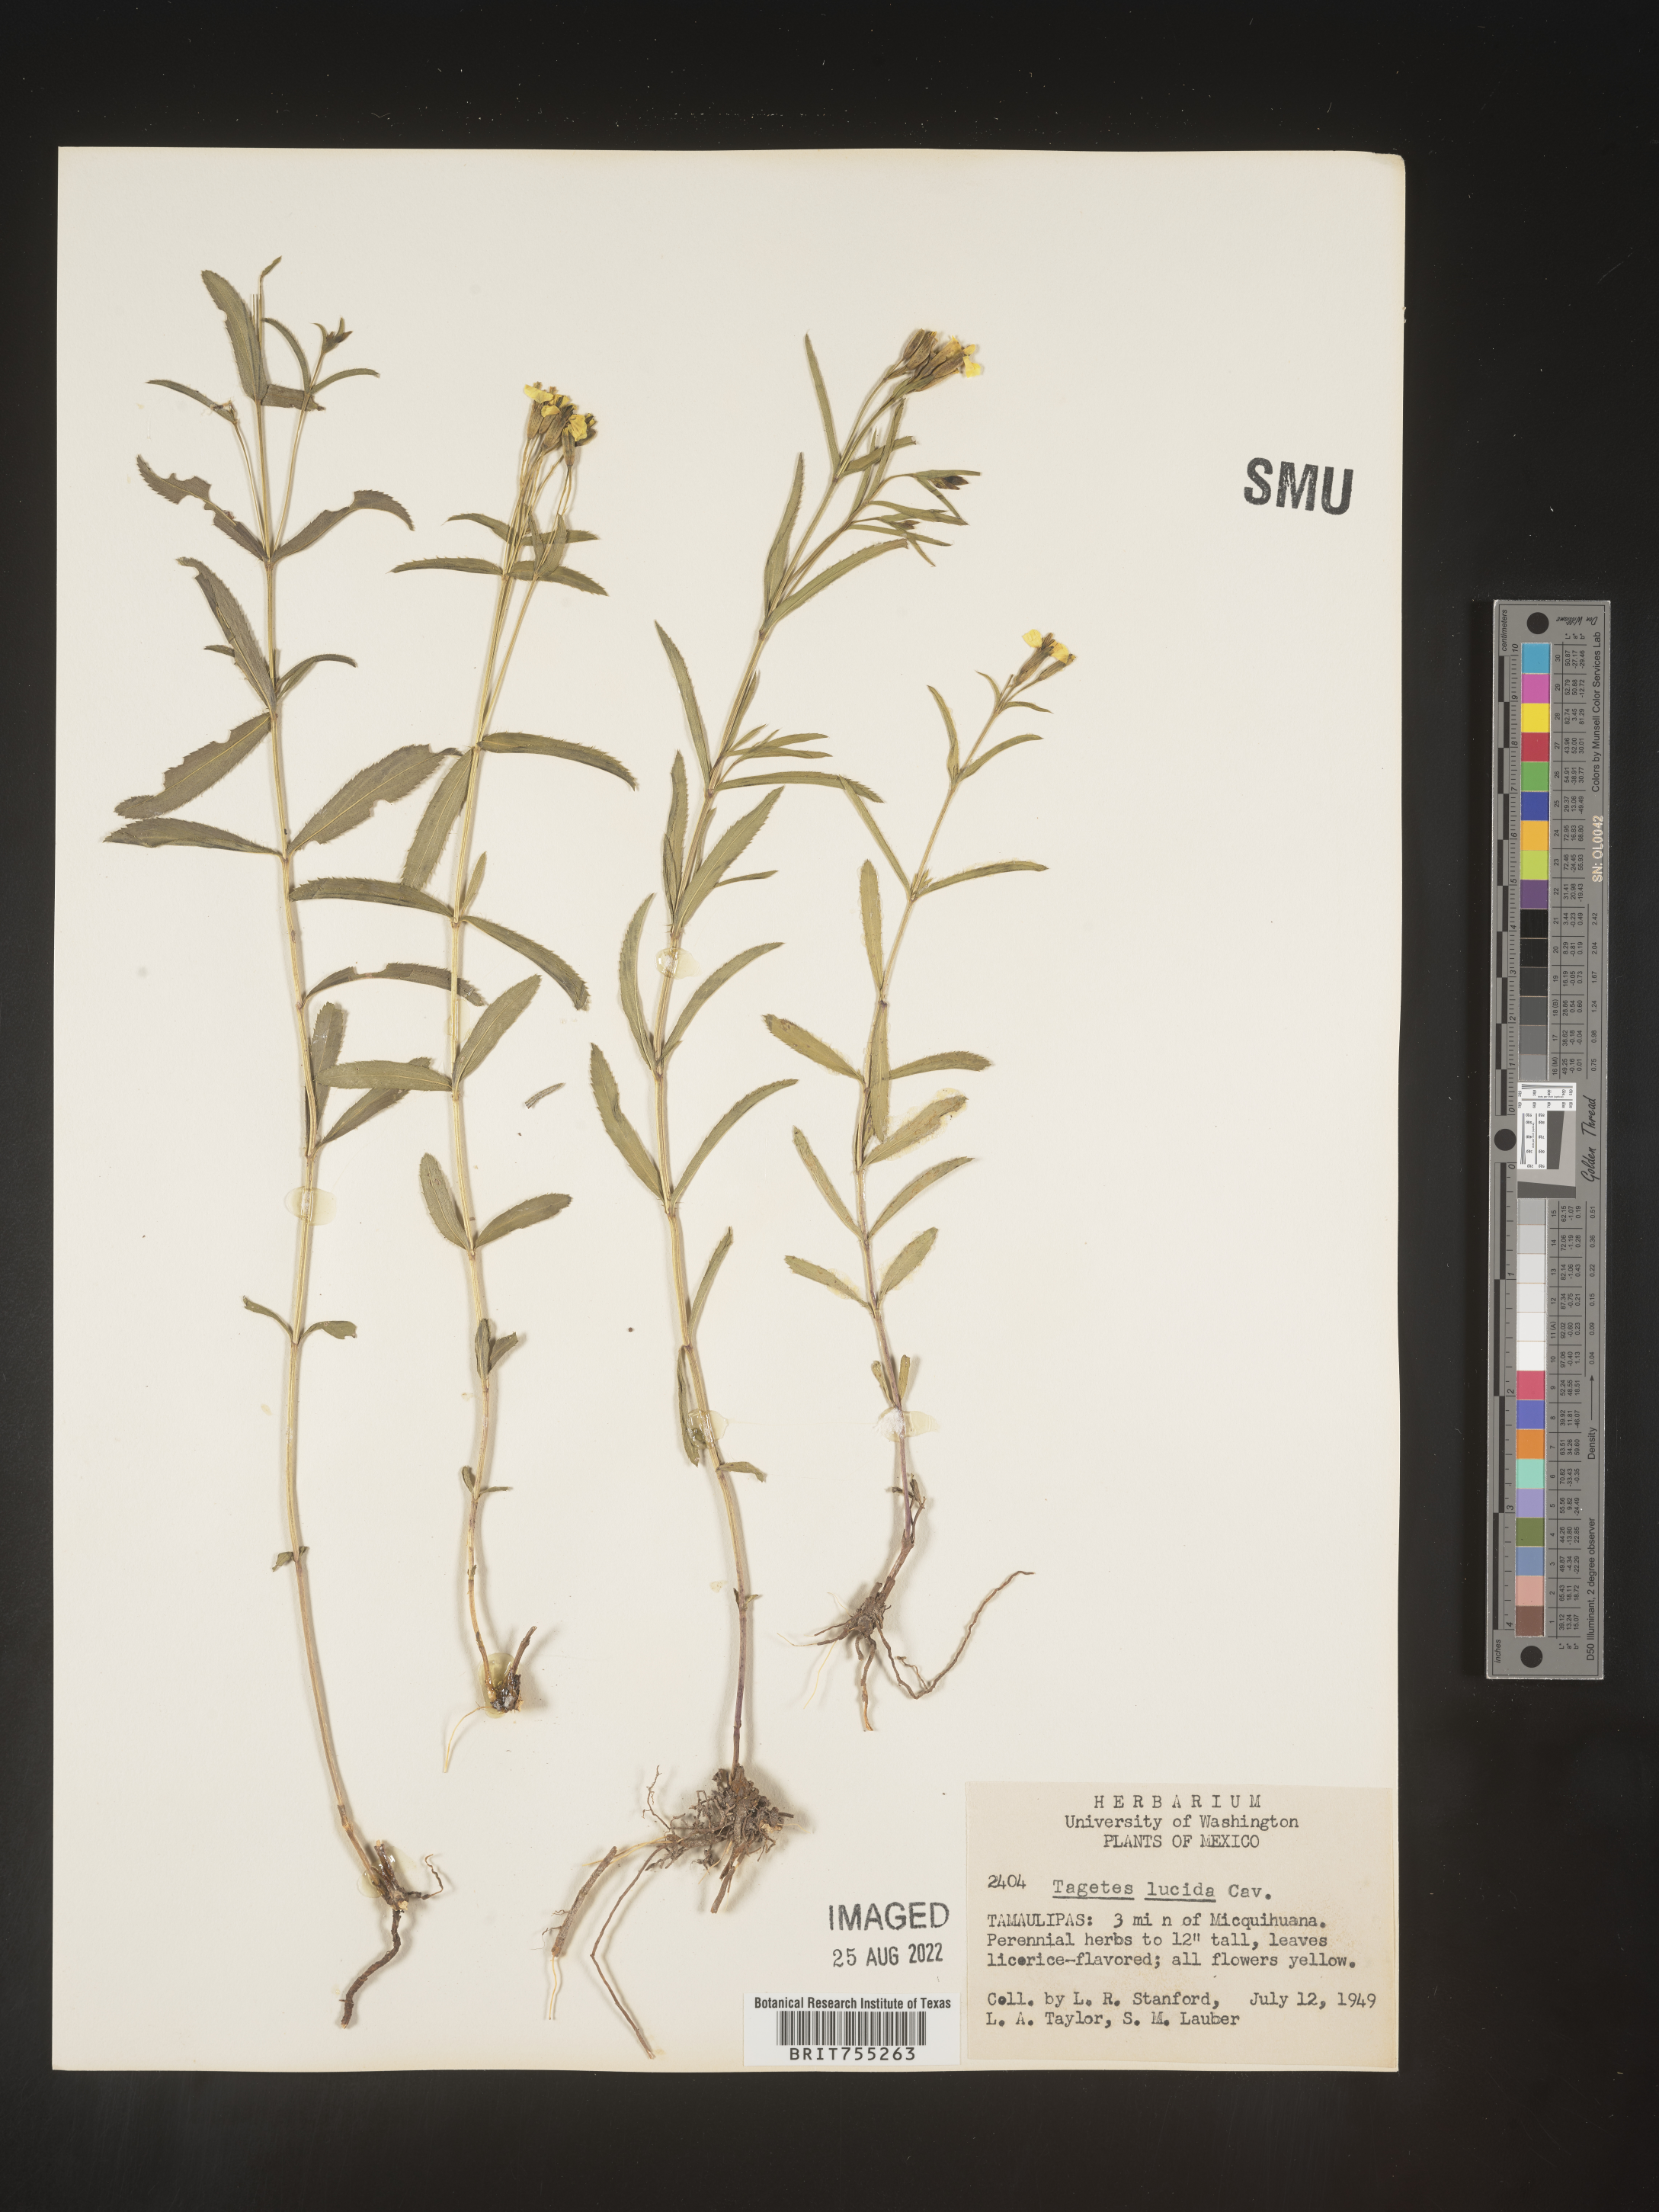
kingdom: Plantae
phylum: Tracheophyta
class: Magnoliopsida
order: Asterales
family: Asteraceae
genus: Tagetes
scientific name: Tagetes lucida
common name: Sweetscented marigold
